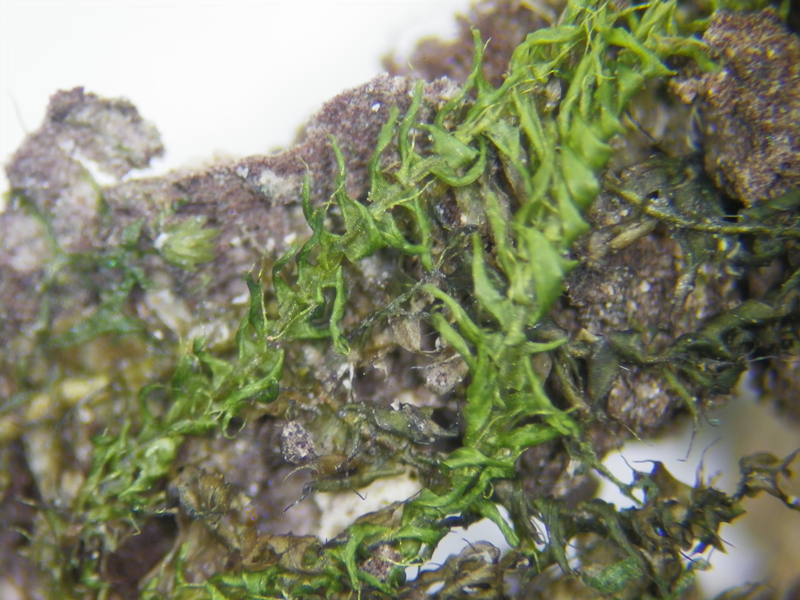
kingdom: Plantae
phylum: Bryophyta
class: Bryopsida
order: Hypnodendrales
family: Racopilaceae
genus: Racopilum
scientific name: Racopilum cuspidigerum
